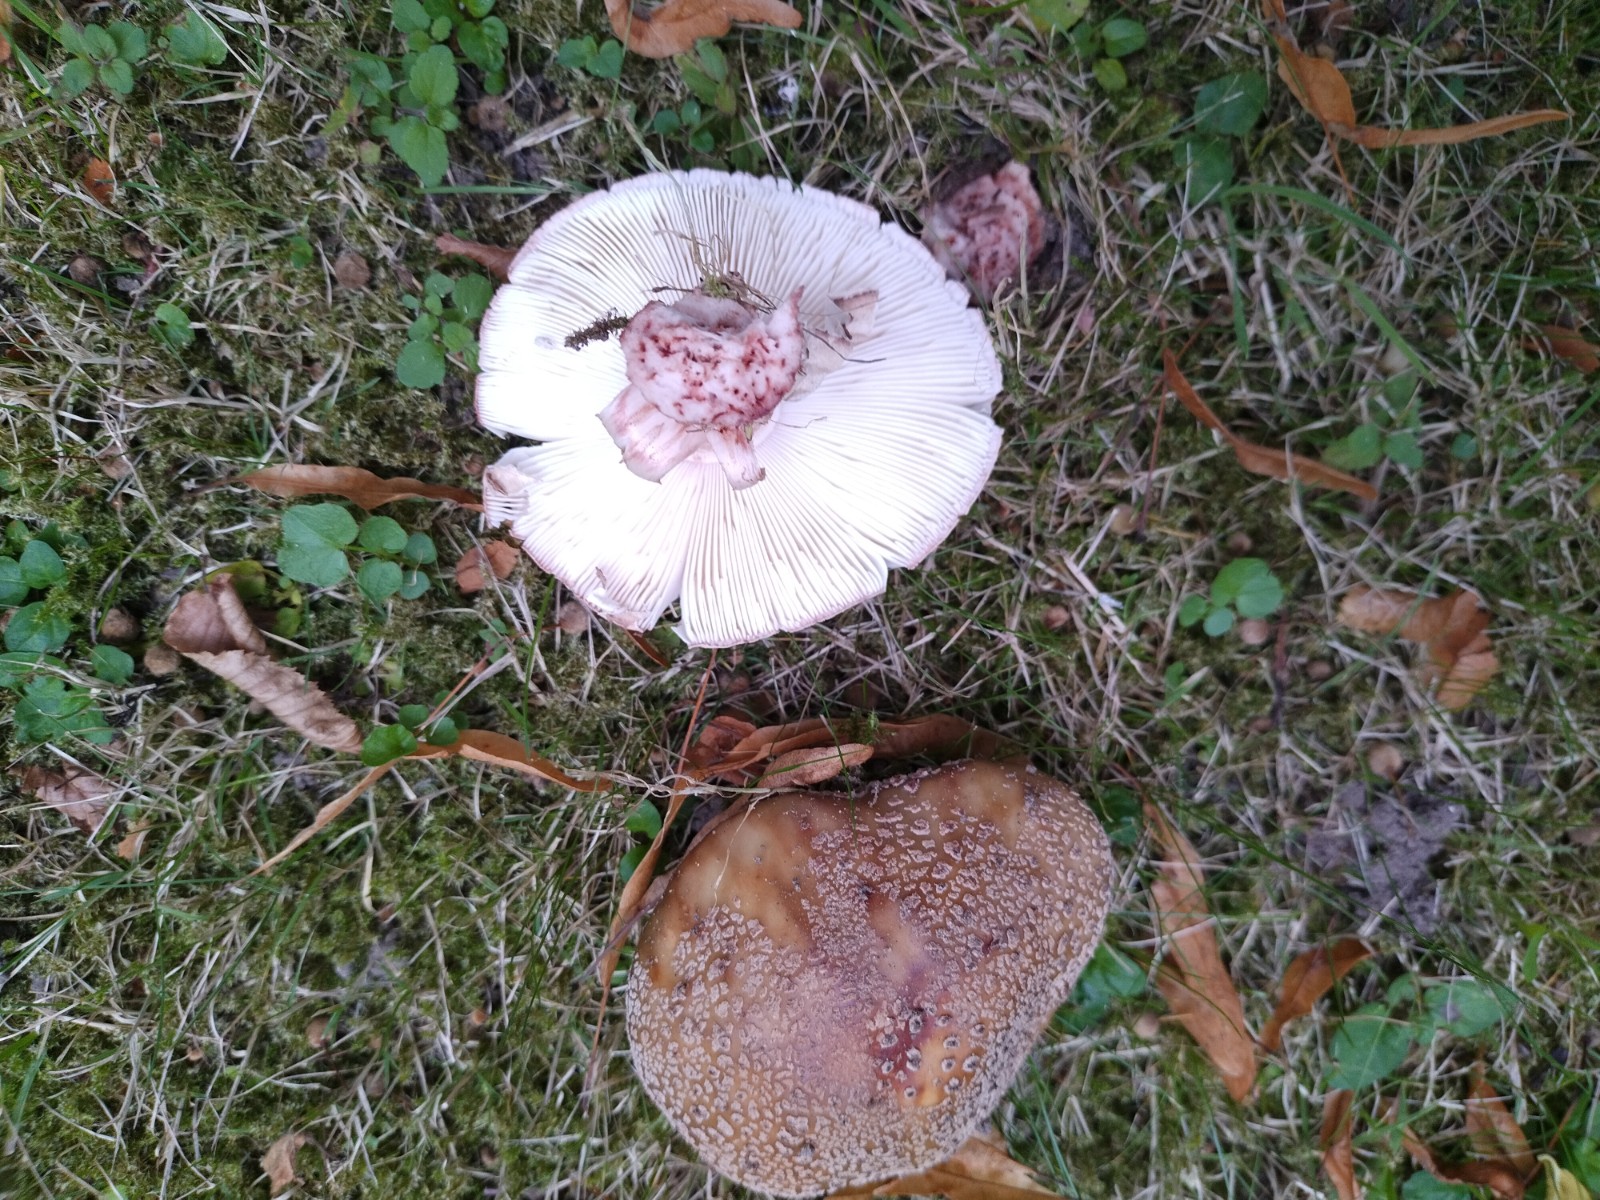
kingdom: Fungi
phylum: Basidiomycota
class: Agaricomycetes
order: Agaricales
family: Amanitaceae
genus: Amanita
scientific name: Amanita rubescens
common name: rødmende fluesvamp
